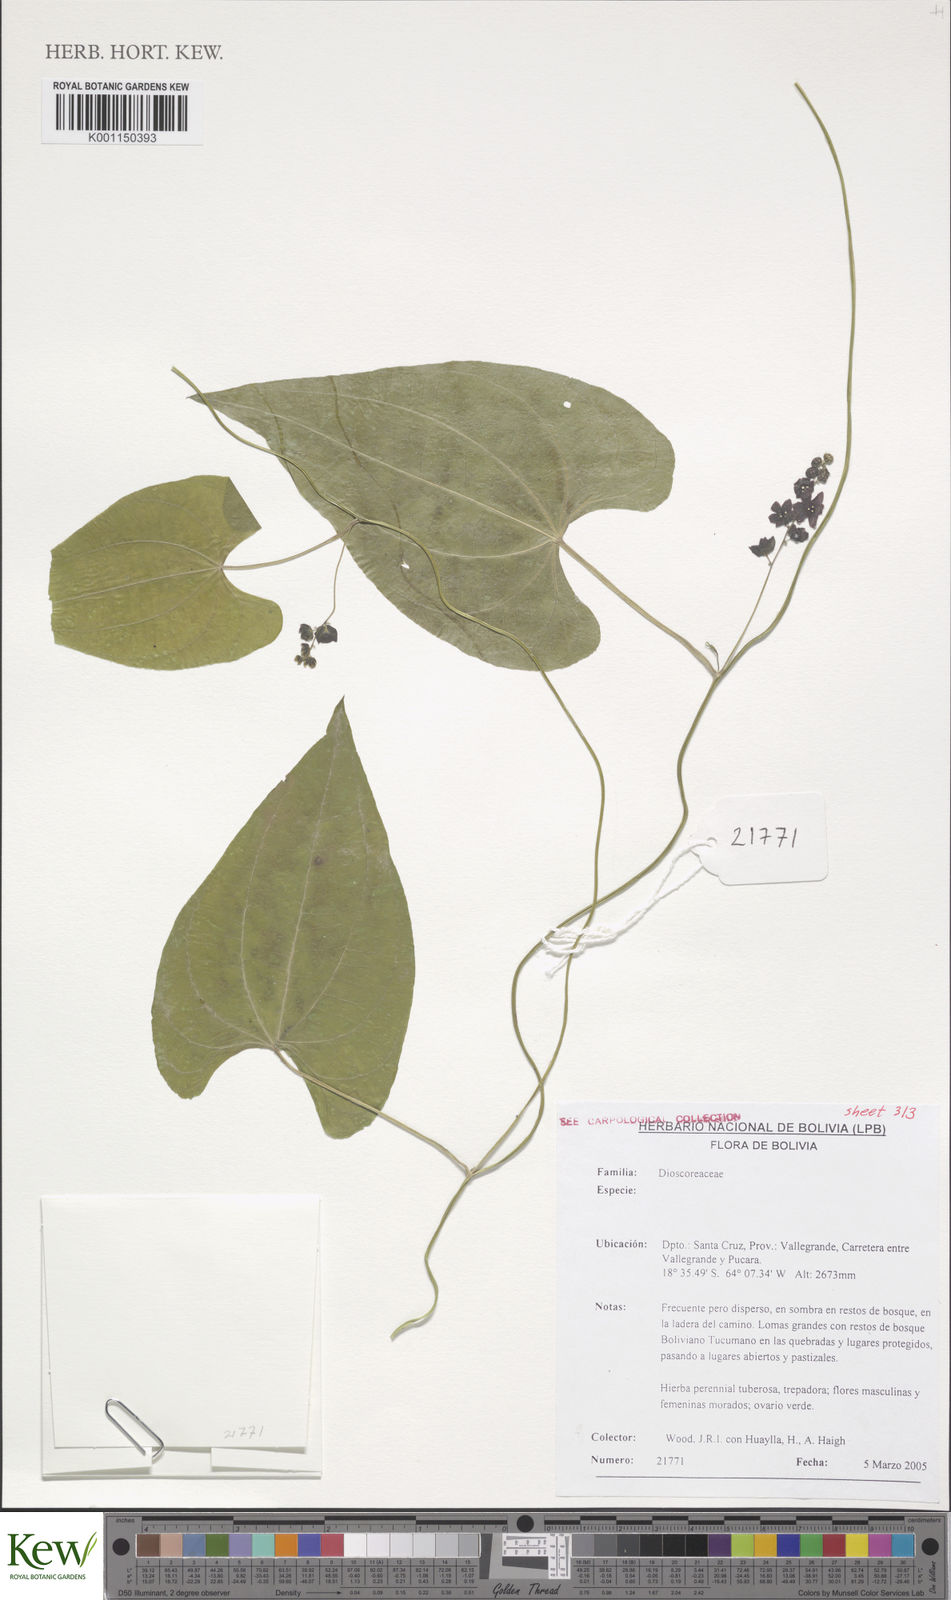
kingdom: Plantae
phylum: Tracheophyta
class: Liliopsida
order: Dioscoreales
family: Dioscoreaceae
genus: Dioscorea
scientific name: Dioscorea
